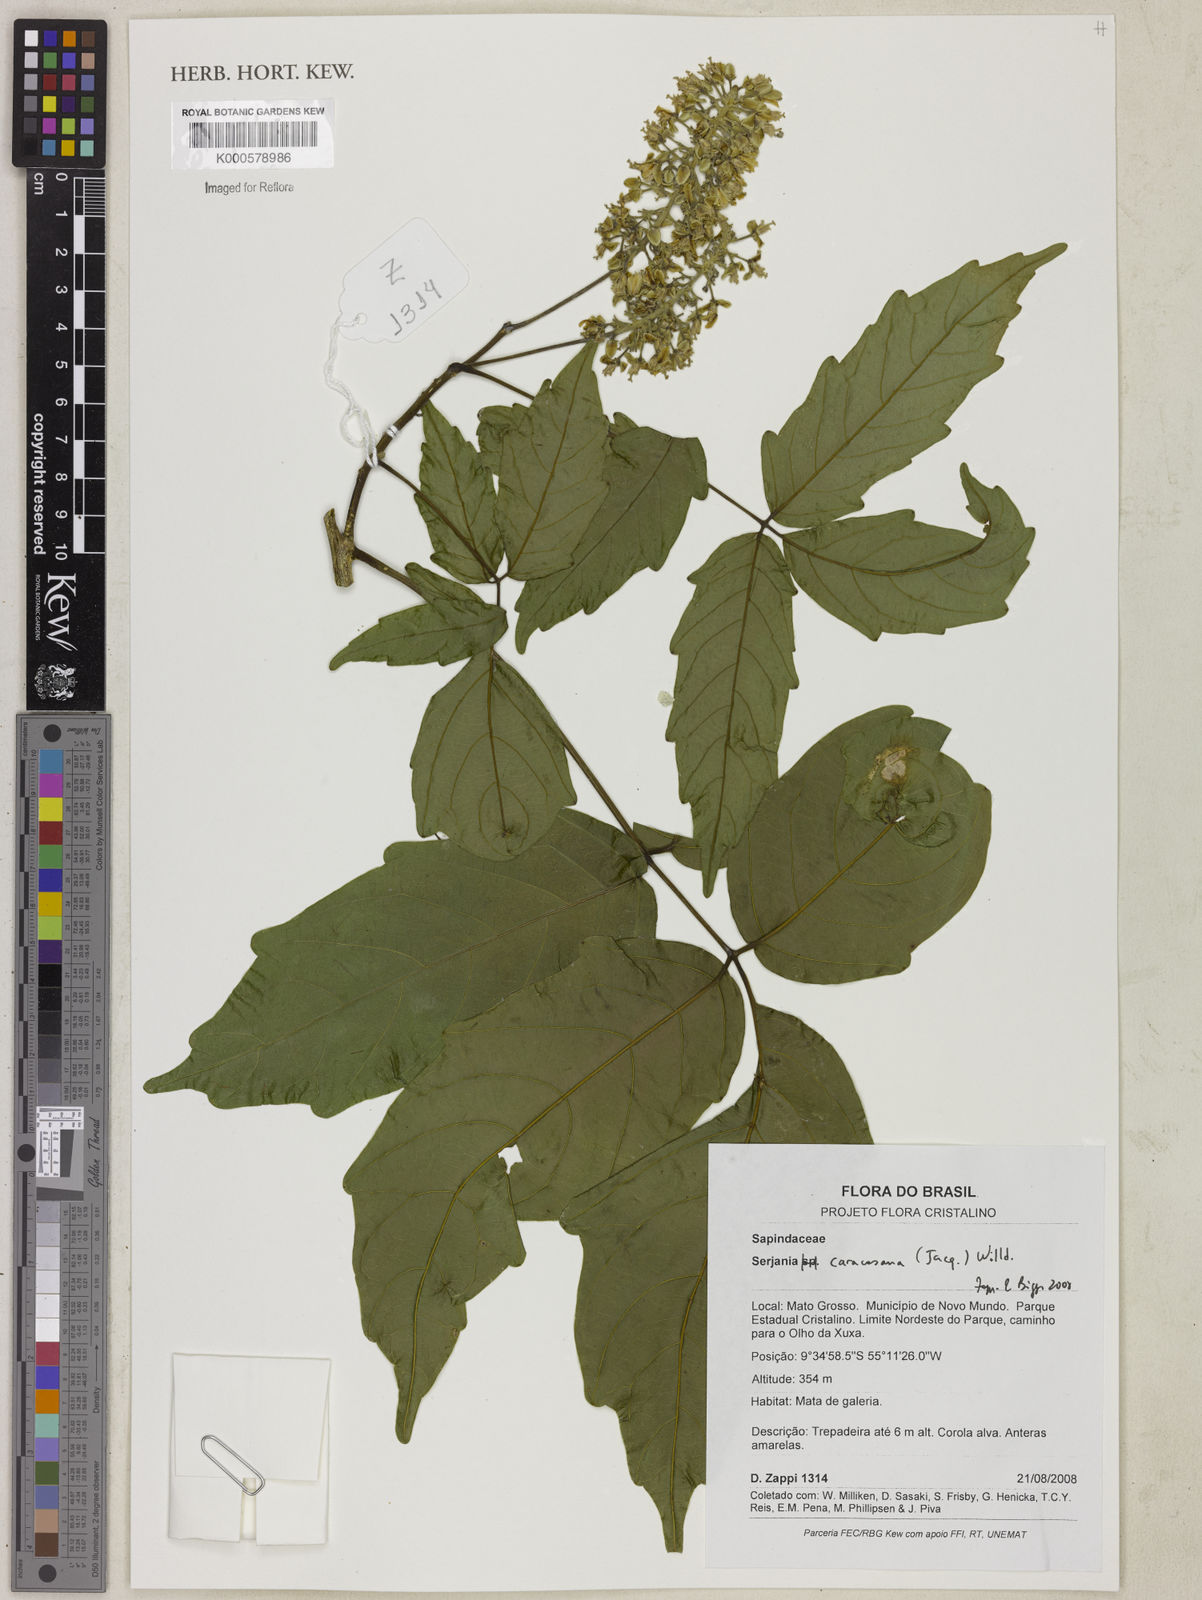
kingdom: Plantae
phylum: Tracheophyta
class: Magnoliopsida
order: Sapindales
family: Sapindaceae
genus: Serjania
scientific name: Serjania caracasana
